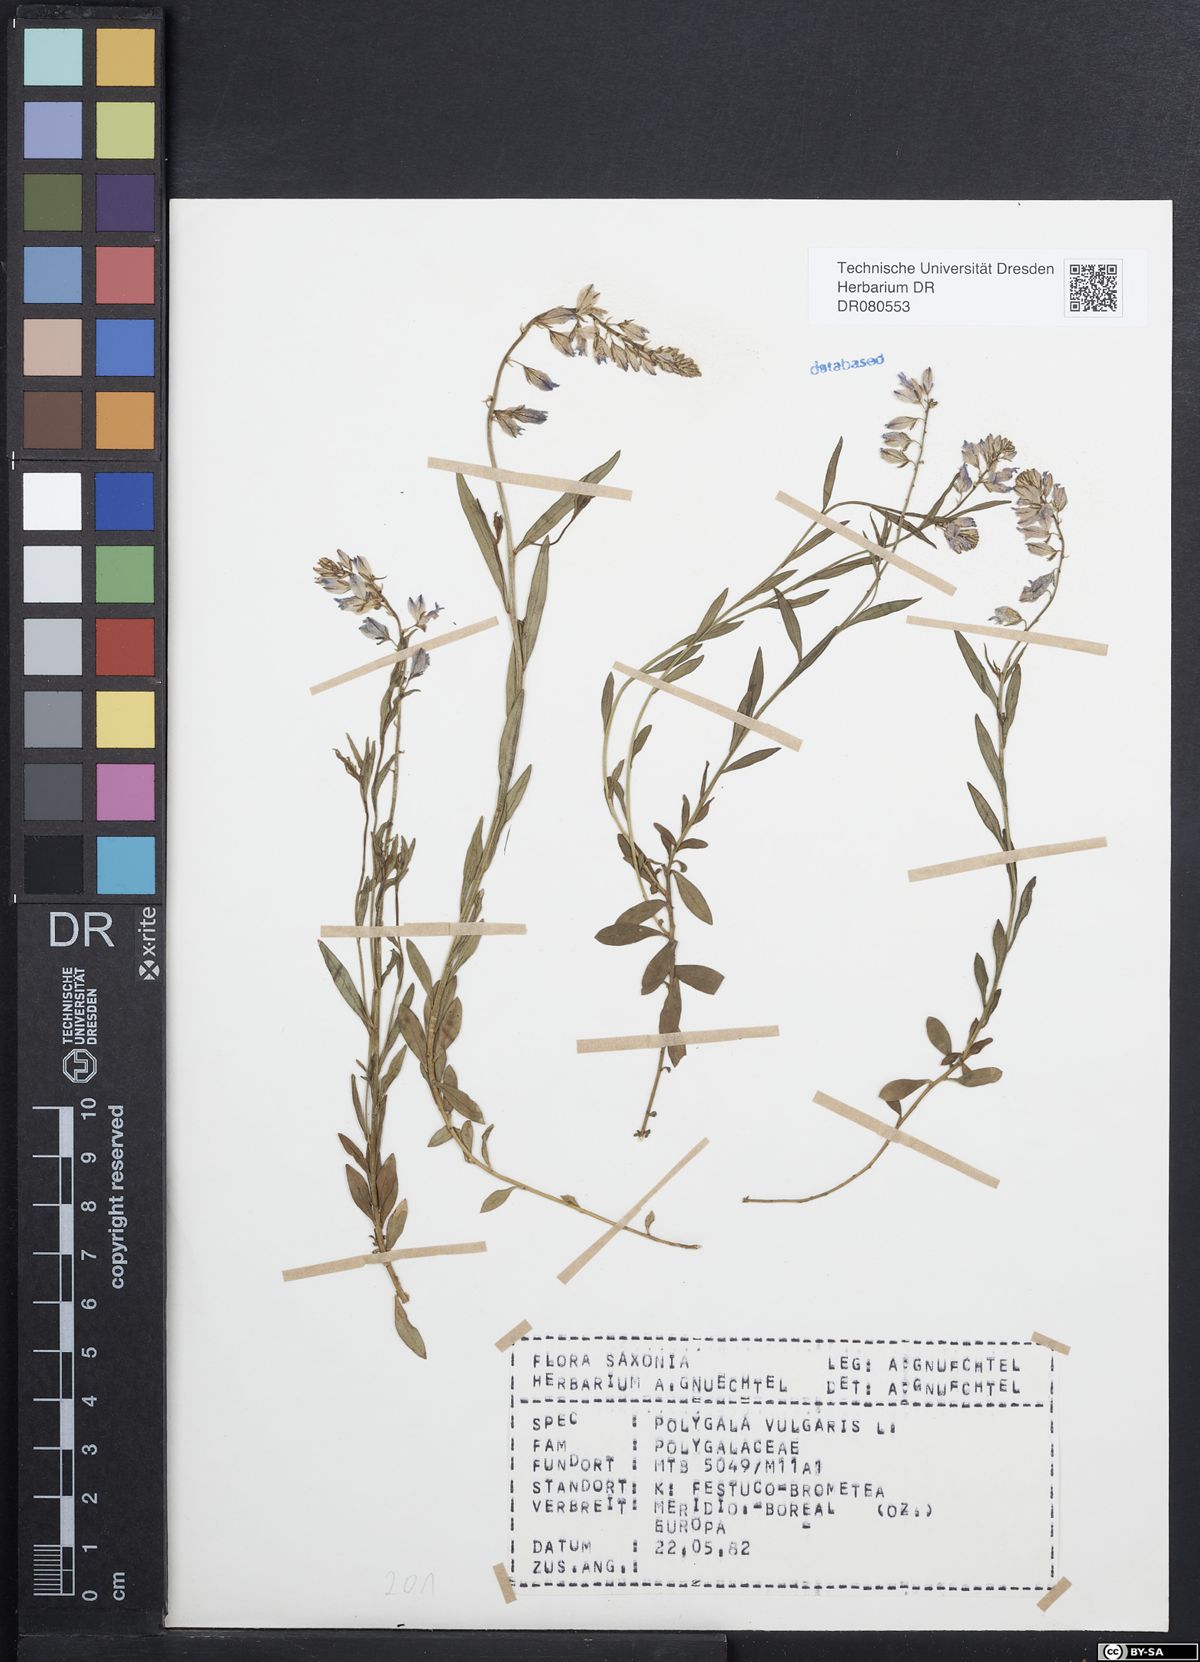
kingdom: Plantae
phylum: Tracheophyta
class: Magnoliopsida
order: Fabales
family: Polygalaceae
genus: Polygala
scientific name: Polygala vulgaris
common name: Common milkwort
